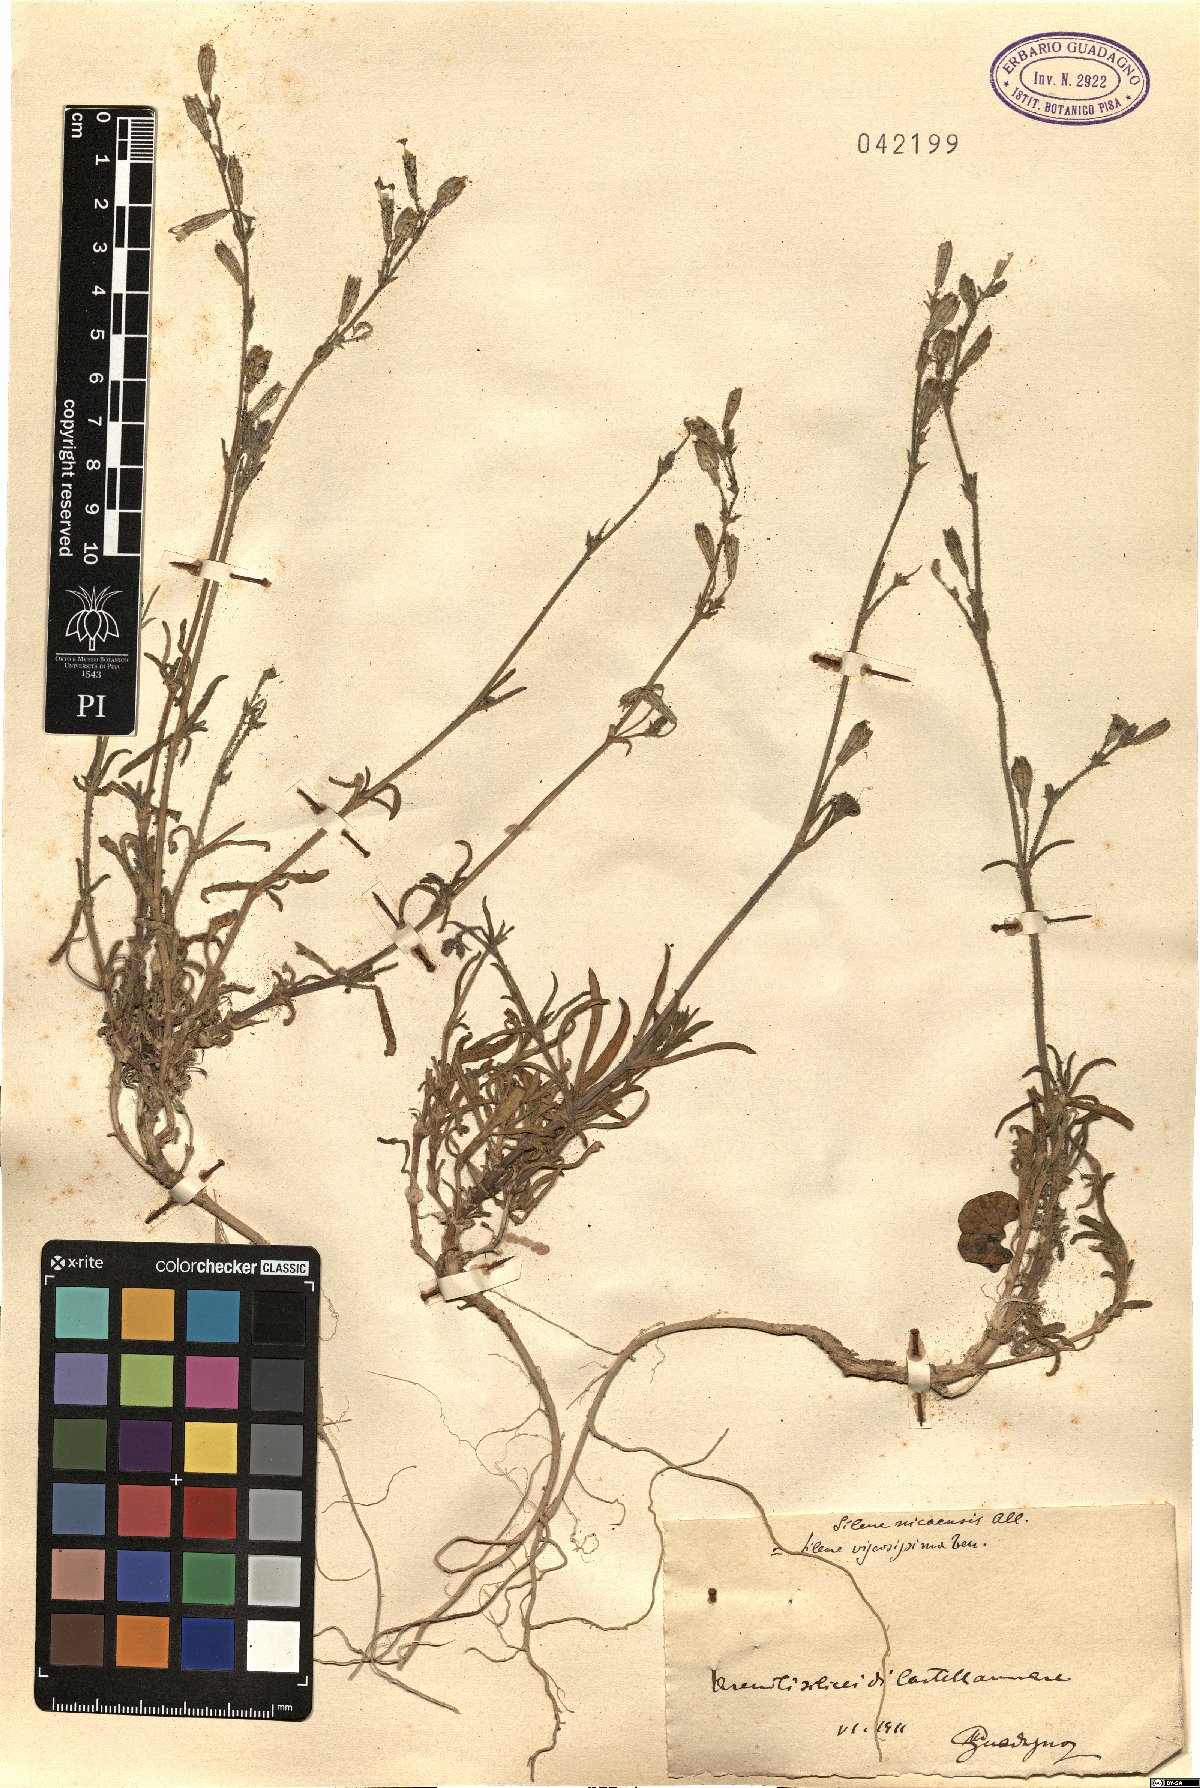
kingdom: Plantae
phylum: Tracheophyta
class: Magnoliopsida
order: Caryophyllales
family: Caryophyllaceae
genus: Silene
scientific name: Silene nicaeensis
